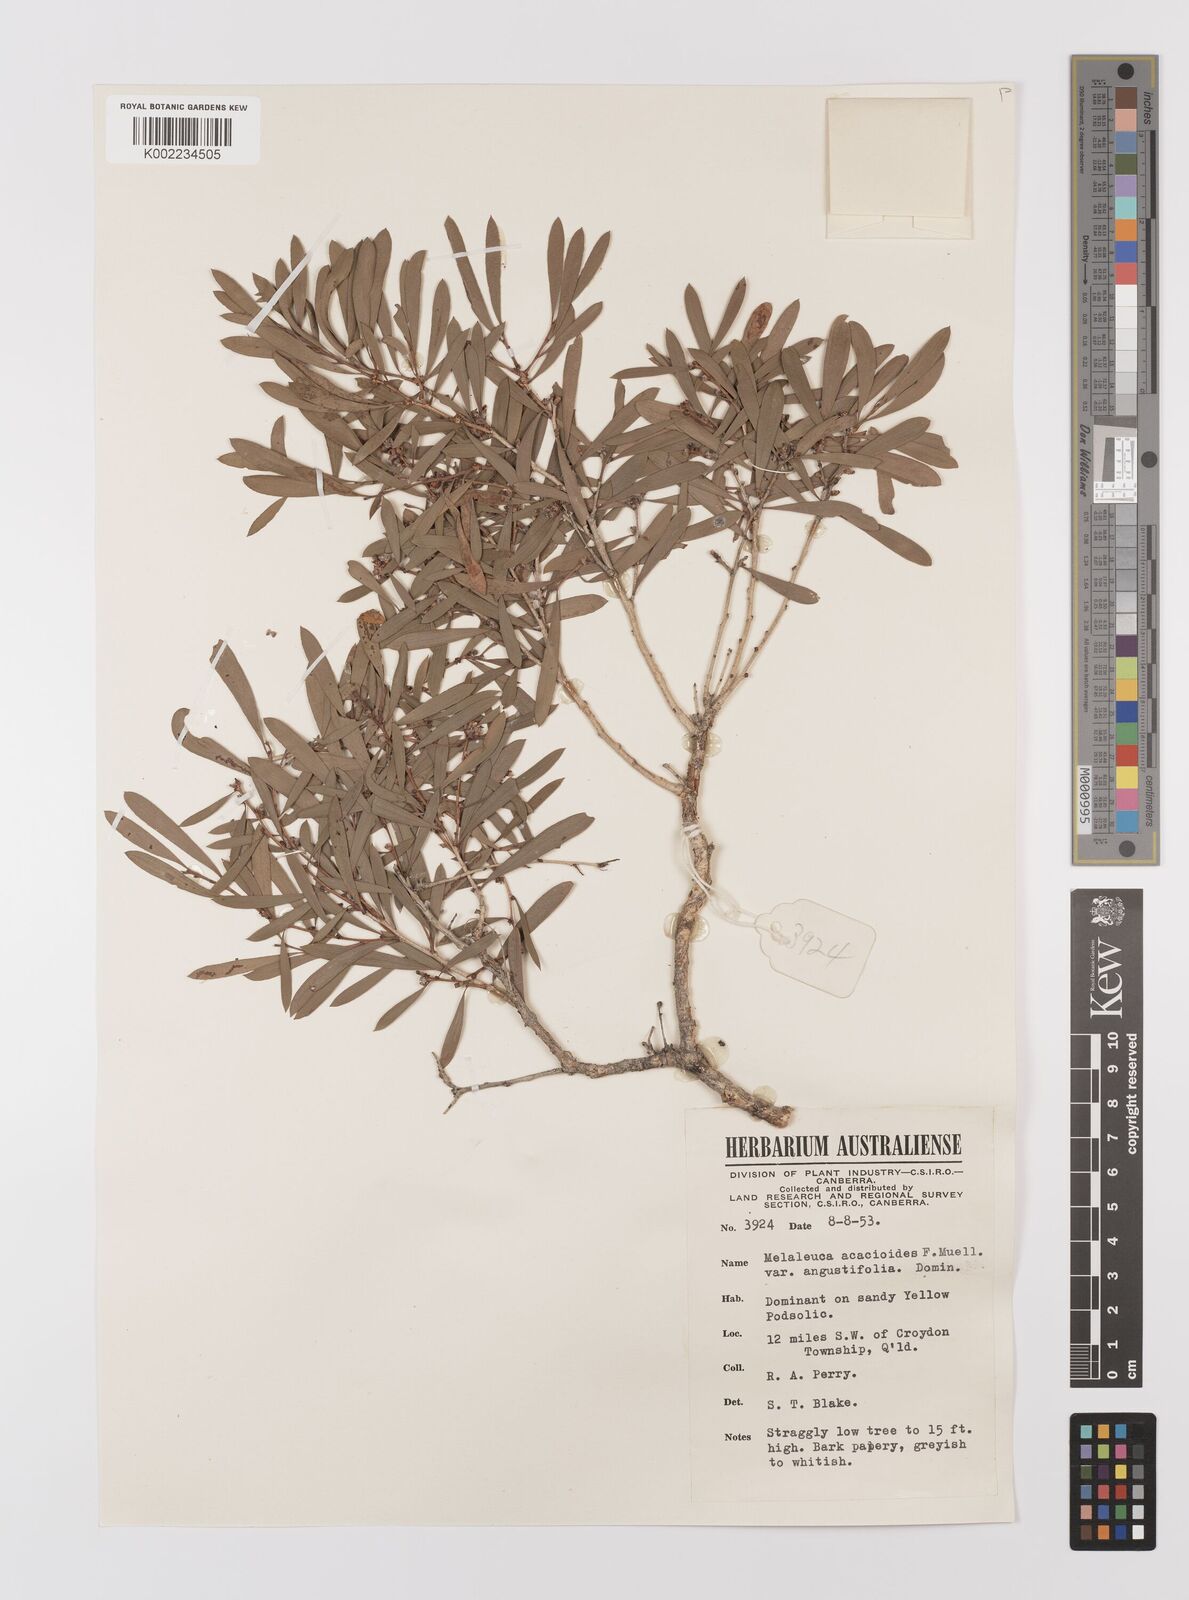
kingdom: Plantae
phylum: Tracheophyta
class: Magnoliopsida
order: Myrtales
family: Myrtaceae
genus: Melaleuca
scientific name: Melaleuca citrolens
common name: Lemon-scented paperbark
